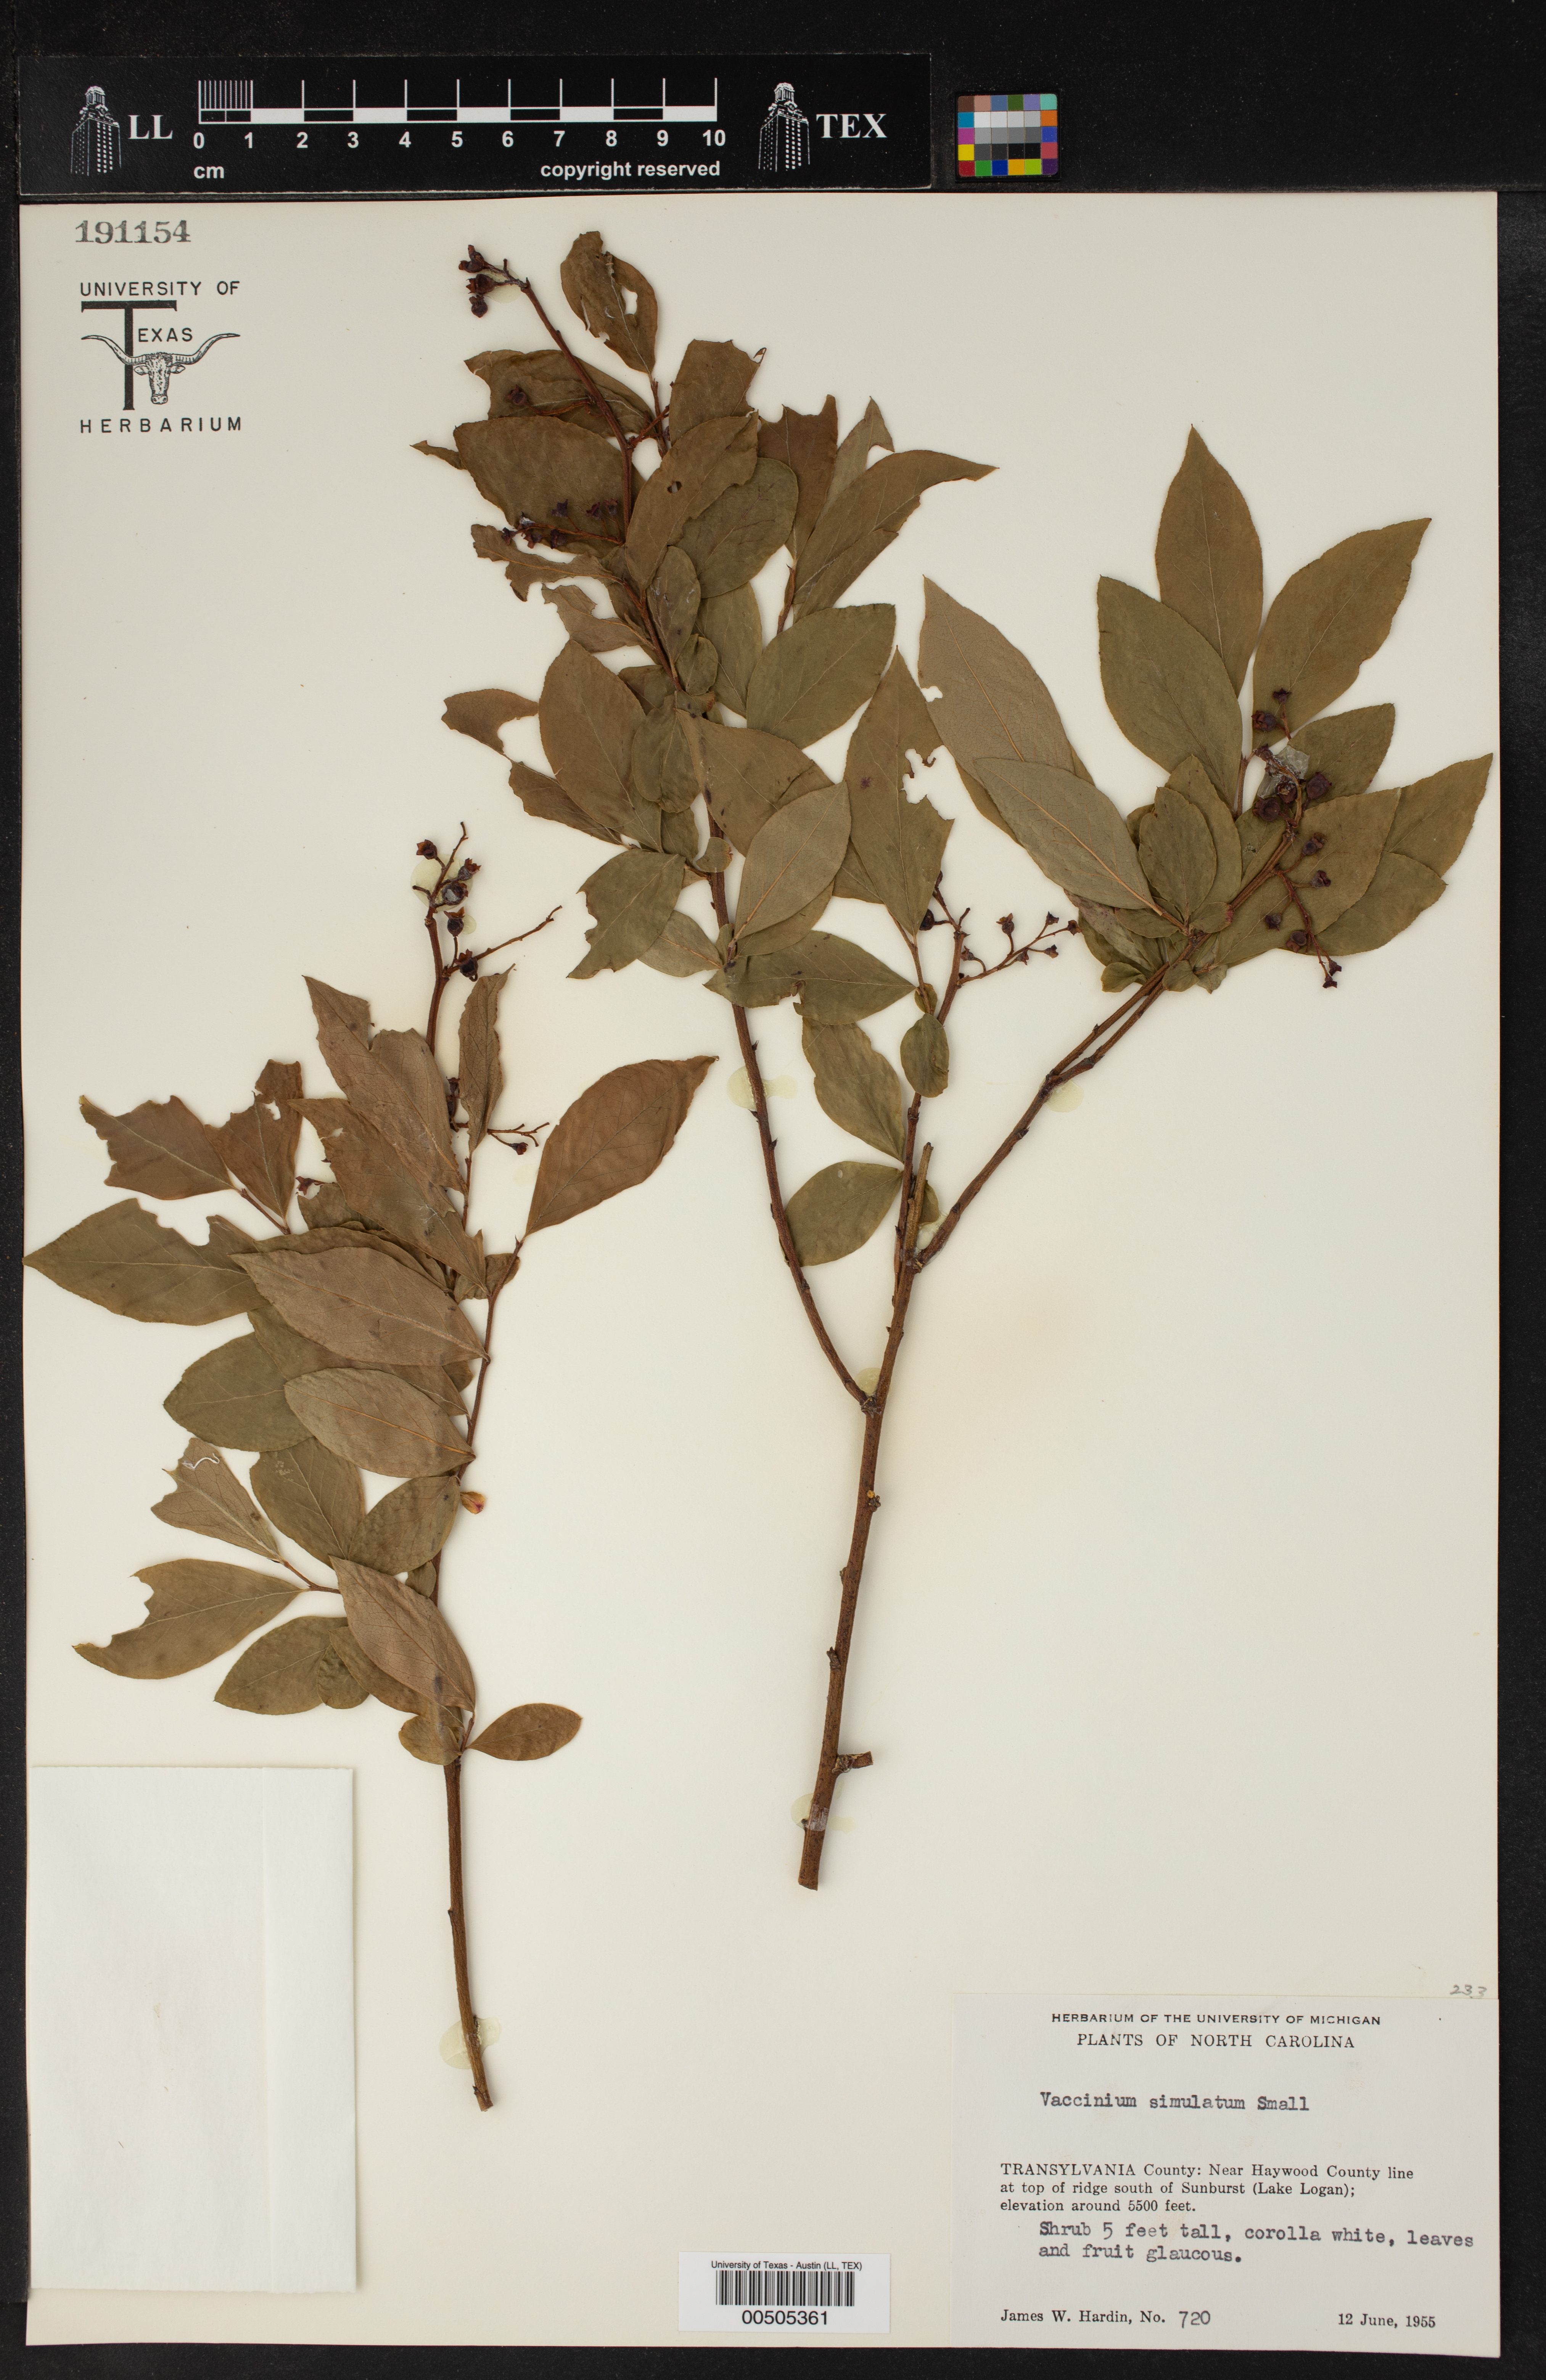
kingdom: Plantae
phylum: Tracheophyta
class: Magnoliopsida
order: Ericales
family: Ericaceae
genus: Vaccinium
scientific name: Vaccinium corymbosum
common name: Blueberry
